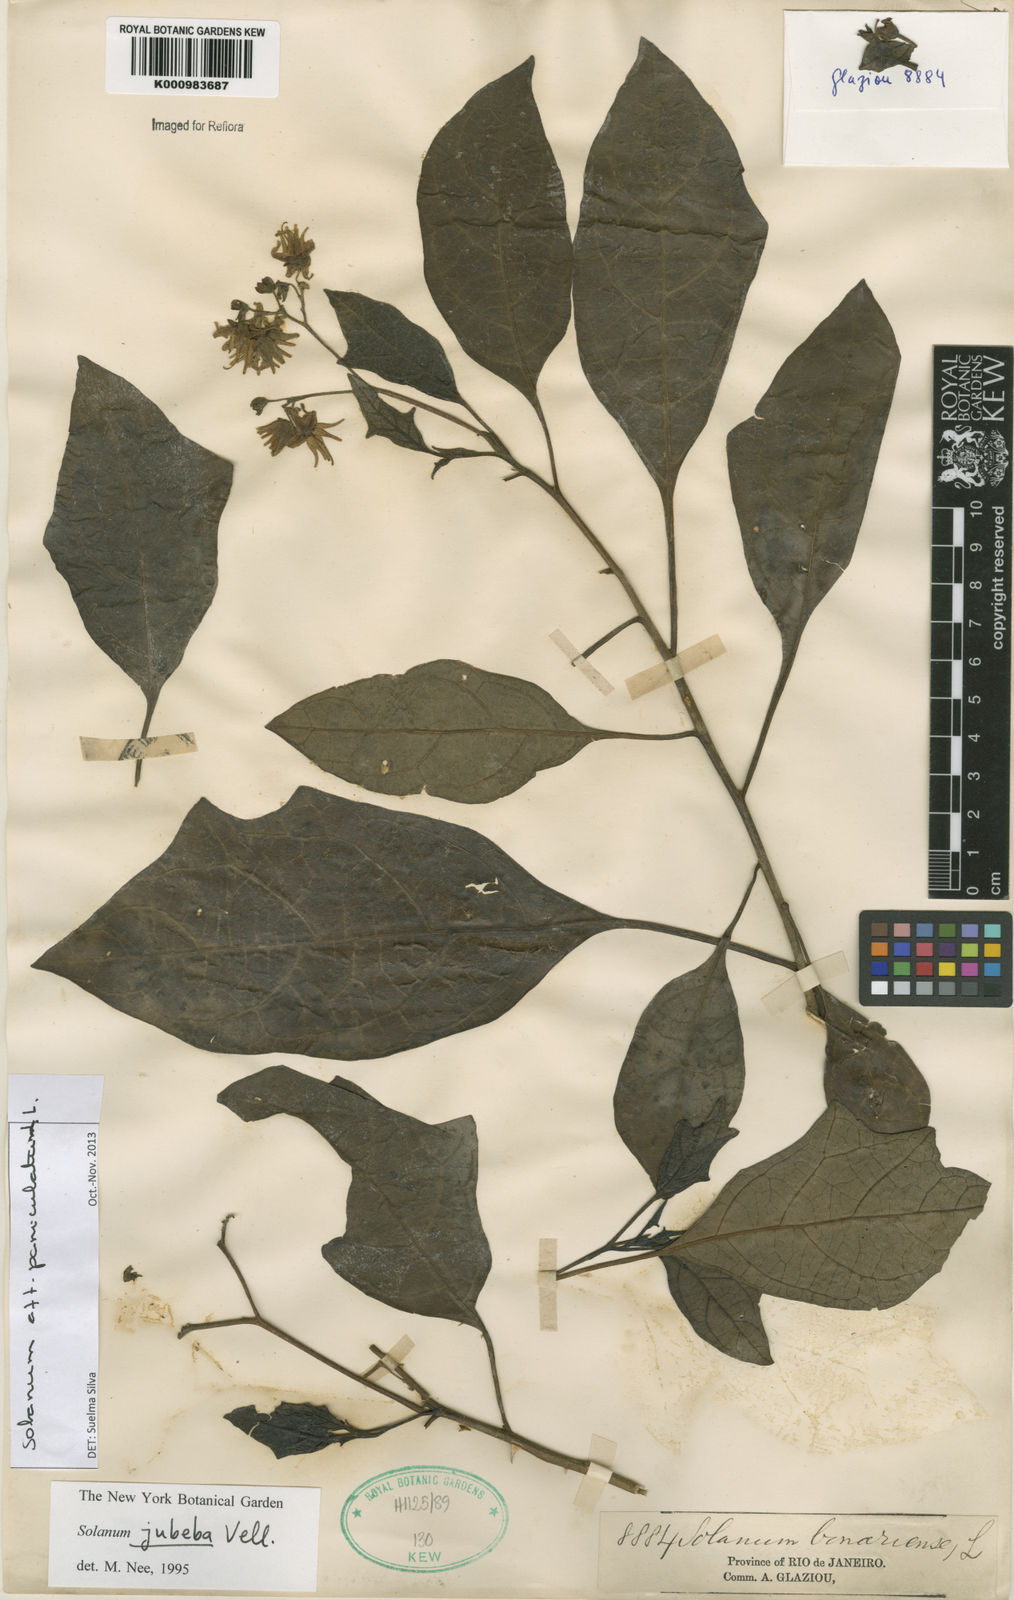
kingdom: Plantae
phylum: Tracheophyta
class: Magnoliopsida
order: Solanales
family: Solanaceae
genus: Solanum
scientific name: Solanum paniculatum
